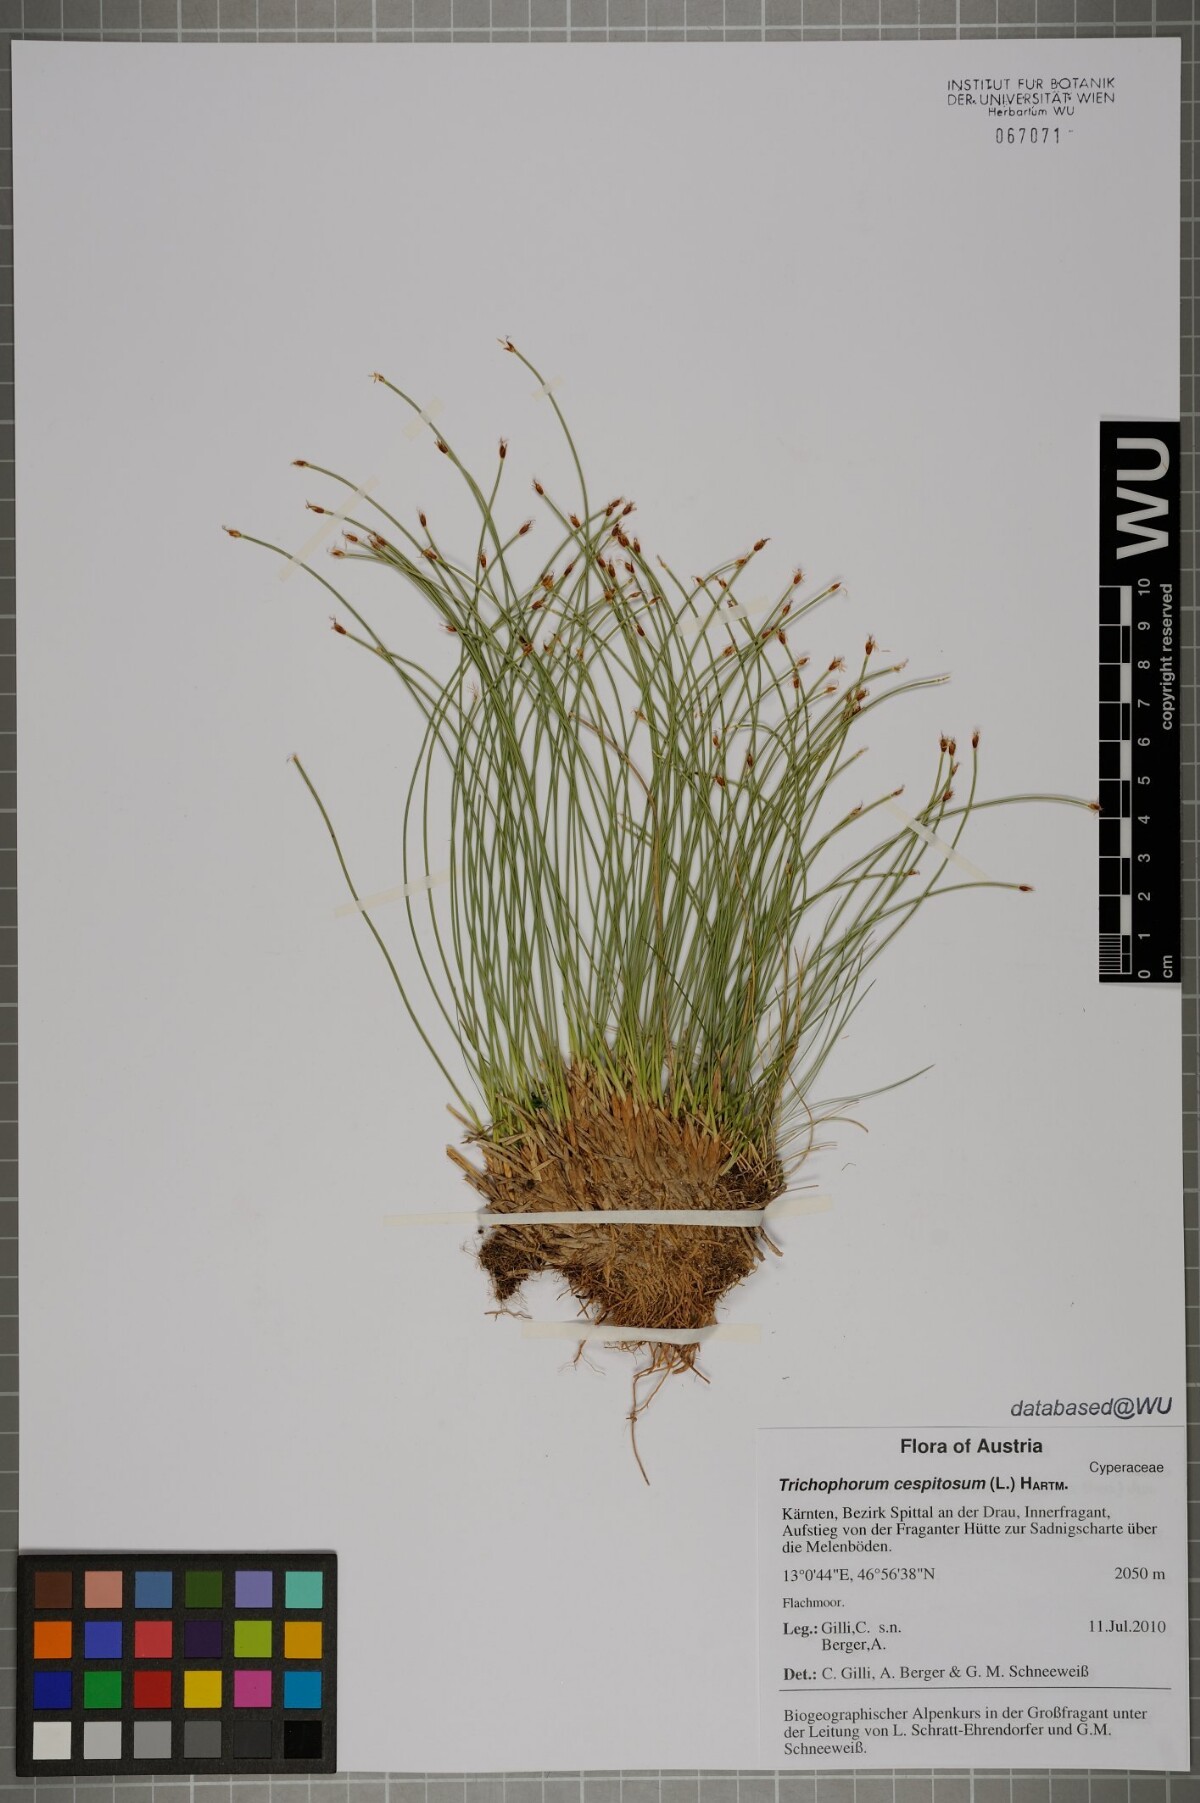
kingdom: Plantae
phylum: Tracheophyta
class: Liliopsida
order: Poales
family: Cyperaceae
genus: Trichophorum
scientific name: Trichophorum cespitosum
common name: Cespitose bulrush
